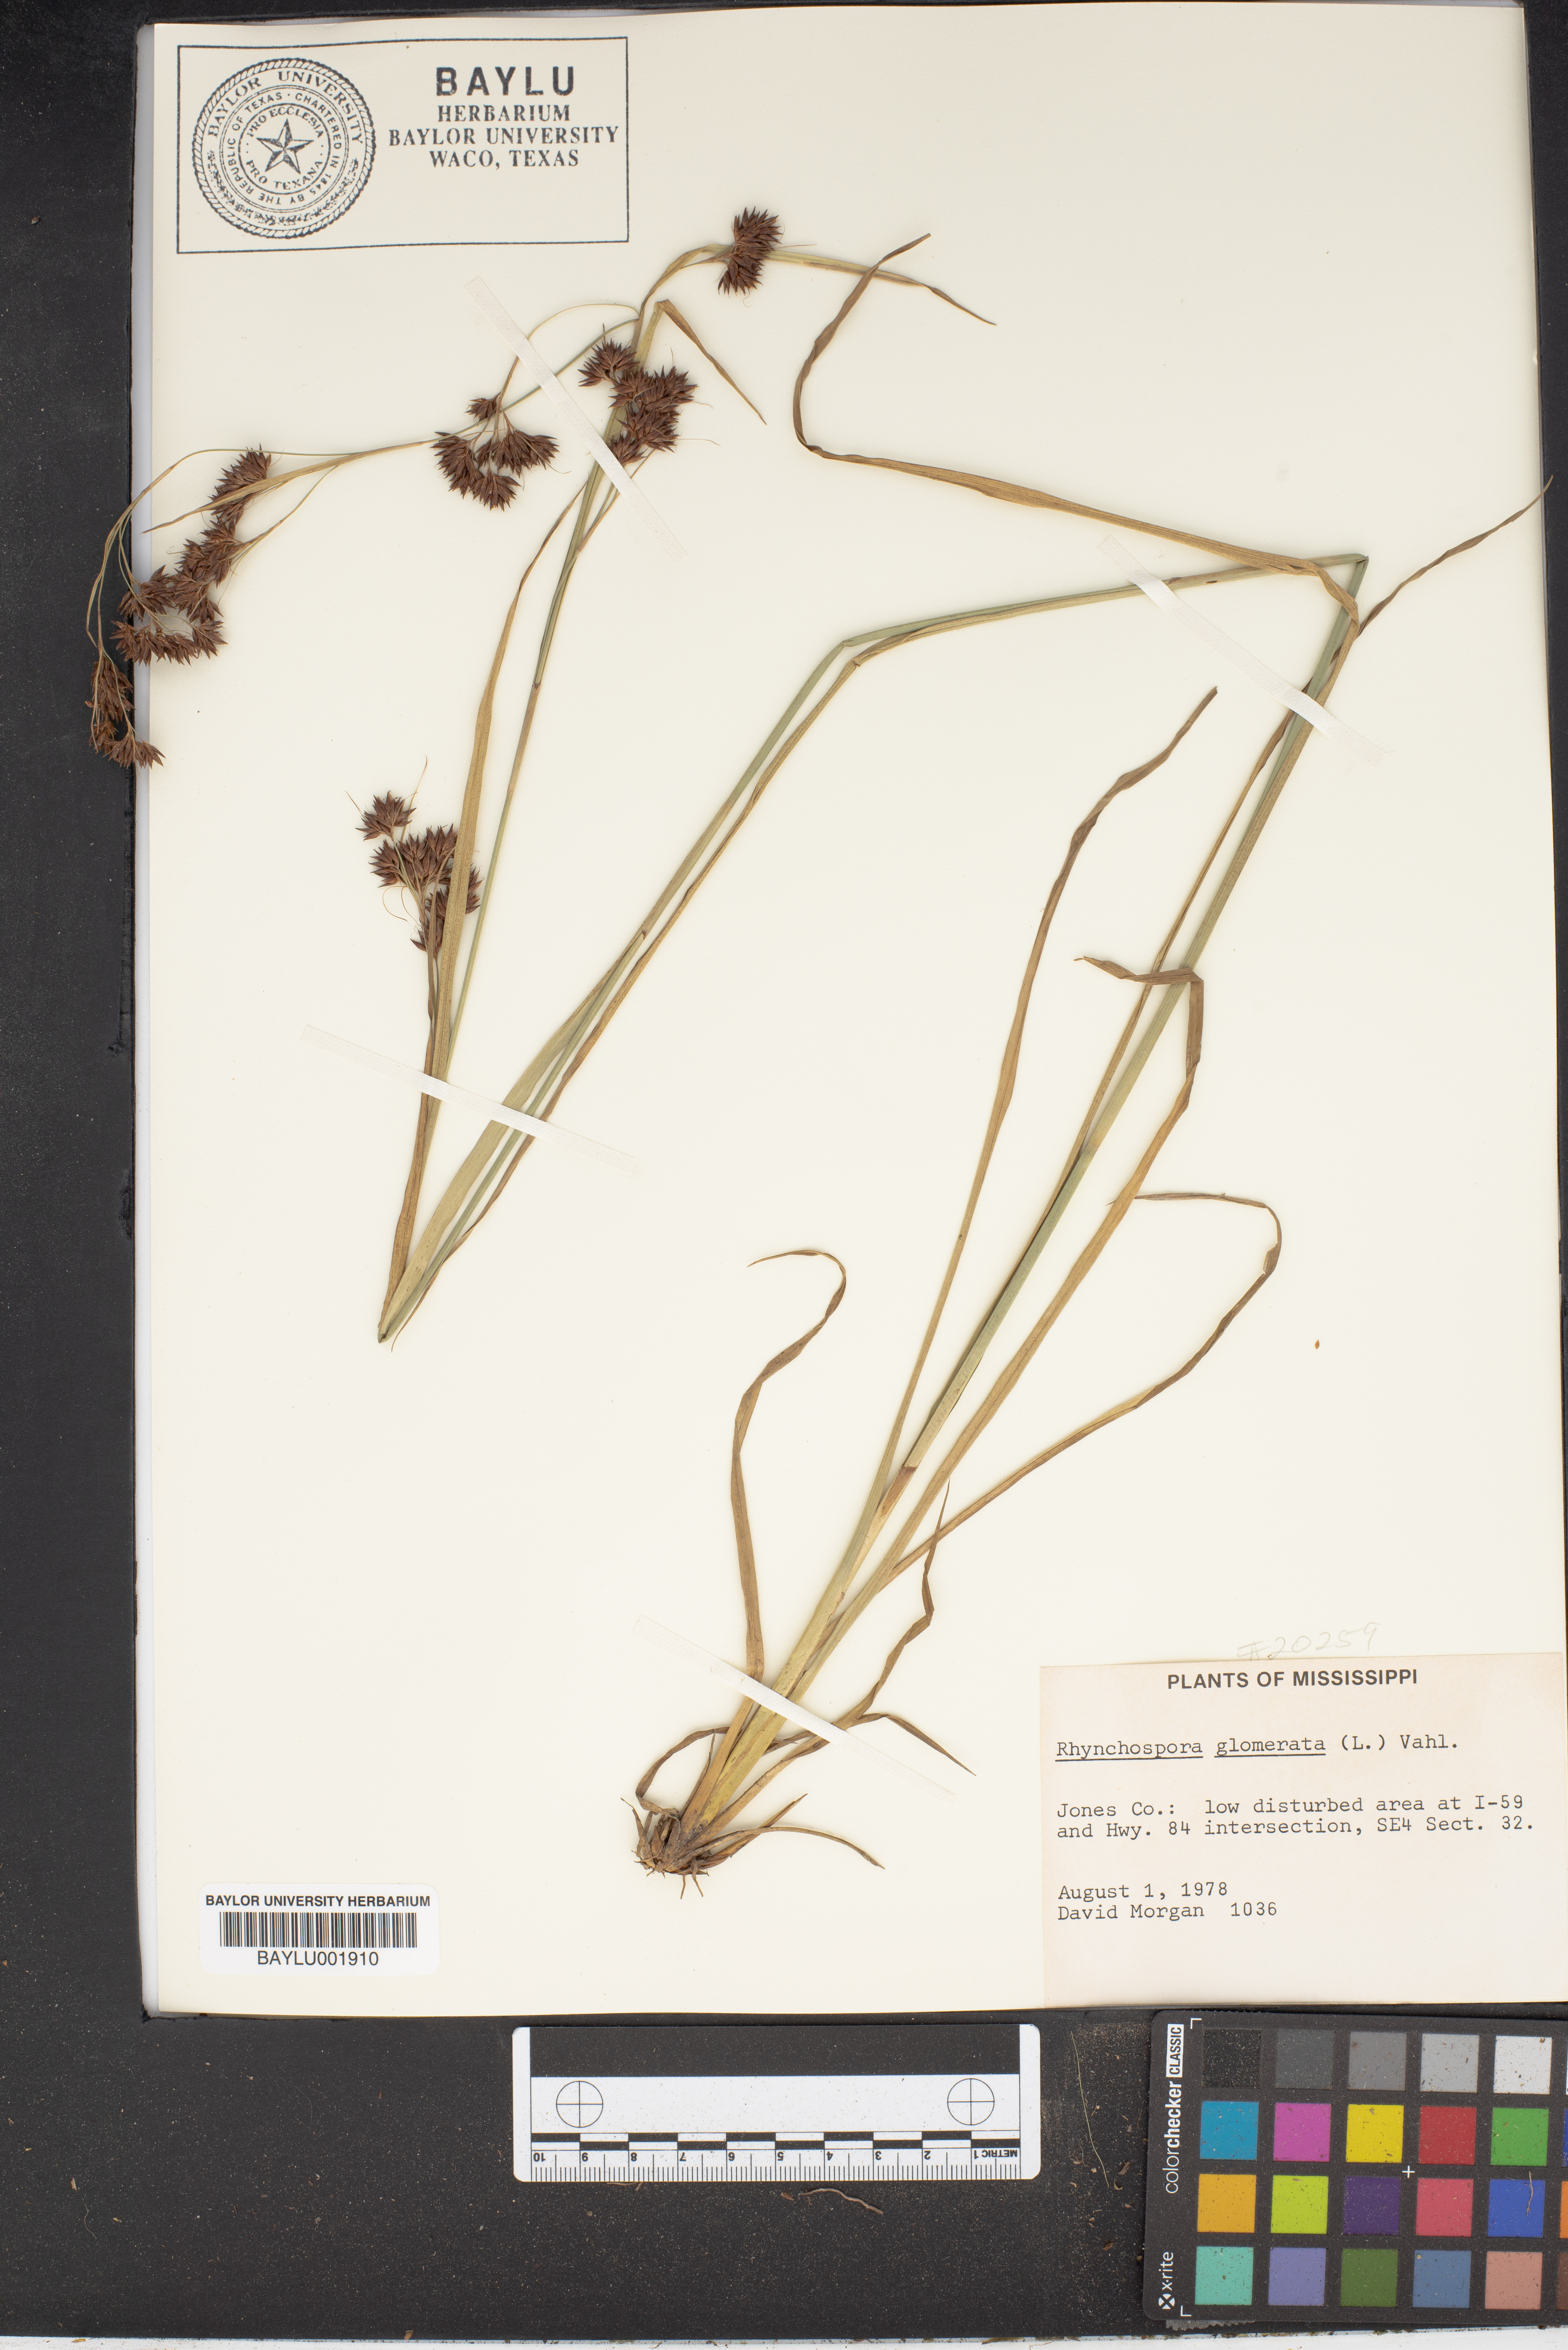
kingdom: Plantae
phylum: Tracheophyta
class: Liliopsida
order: Poales
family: Cyperaceae
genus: Rhynchospora
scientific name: Rhynchospora glomerata
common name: Cluster beak sedge
